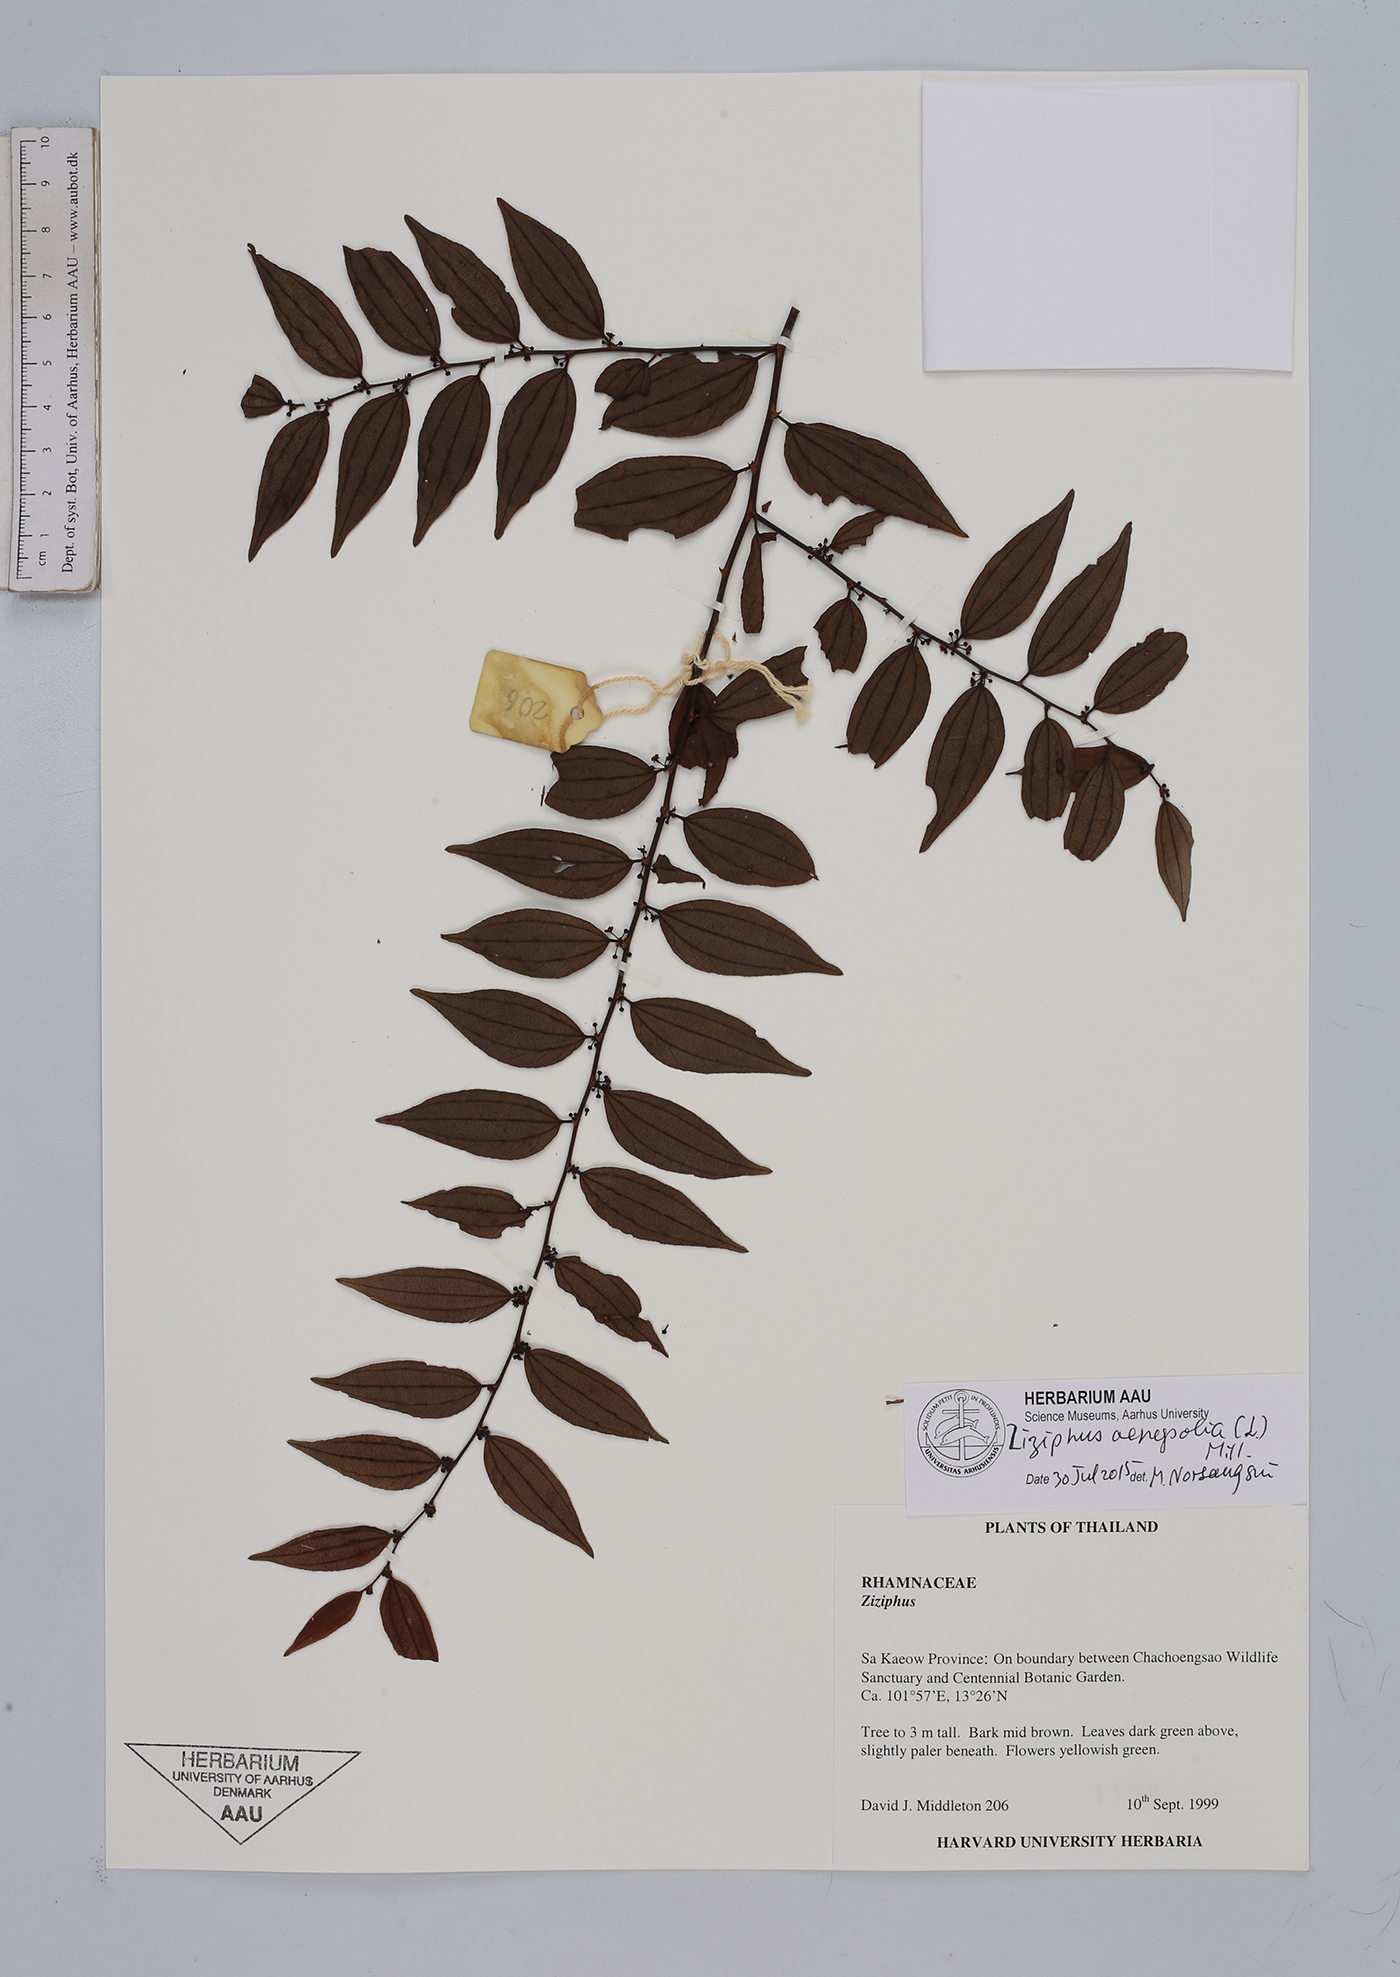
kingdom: Plantae
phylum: Tracheophyta
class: Magnoliopsida
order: Rosales
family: Rhamnaceae
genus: Ziziphus
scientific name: Ziziphus oenopolia
